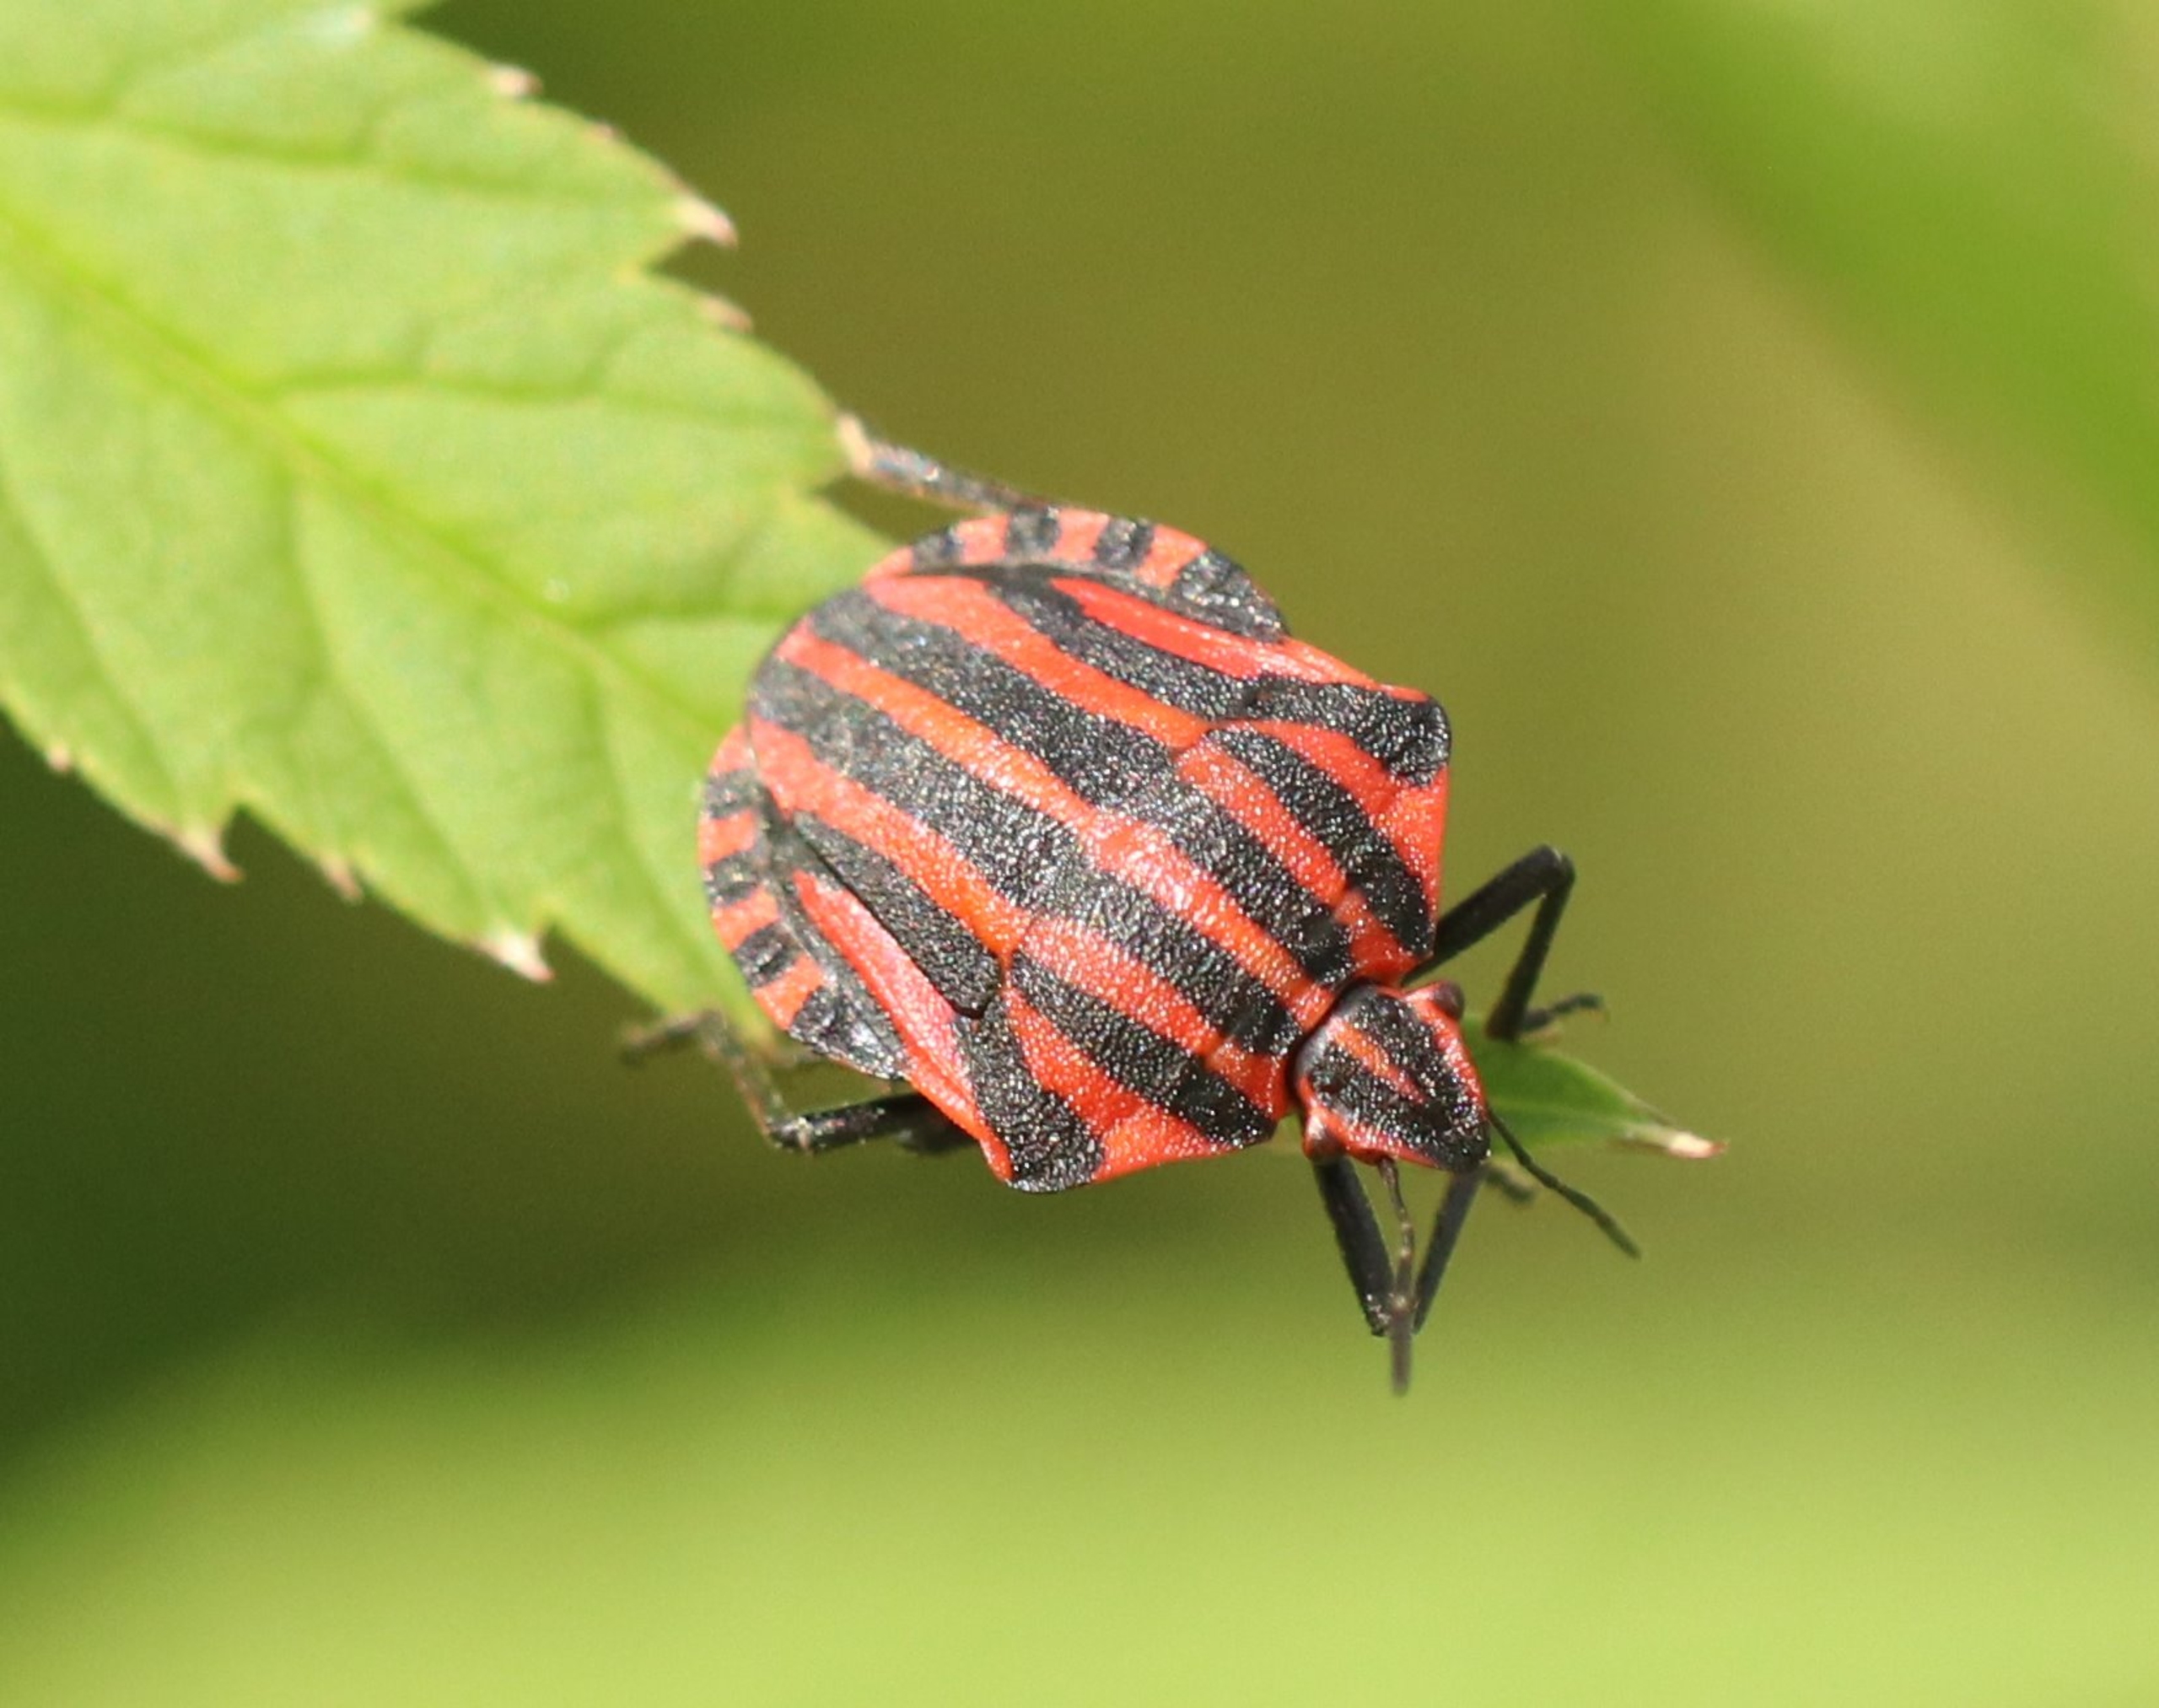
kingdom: Animalia
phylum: Arthropoda
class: Insecta
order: Hemiptera
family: Pentatomidae
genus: Graphosoma
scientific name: Graphosoma italicum
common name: Stribetæge
